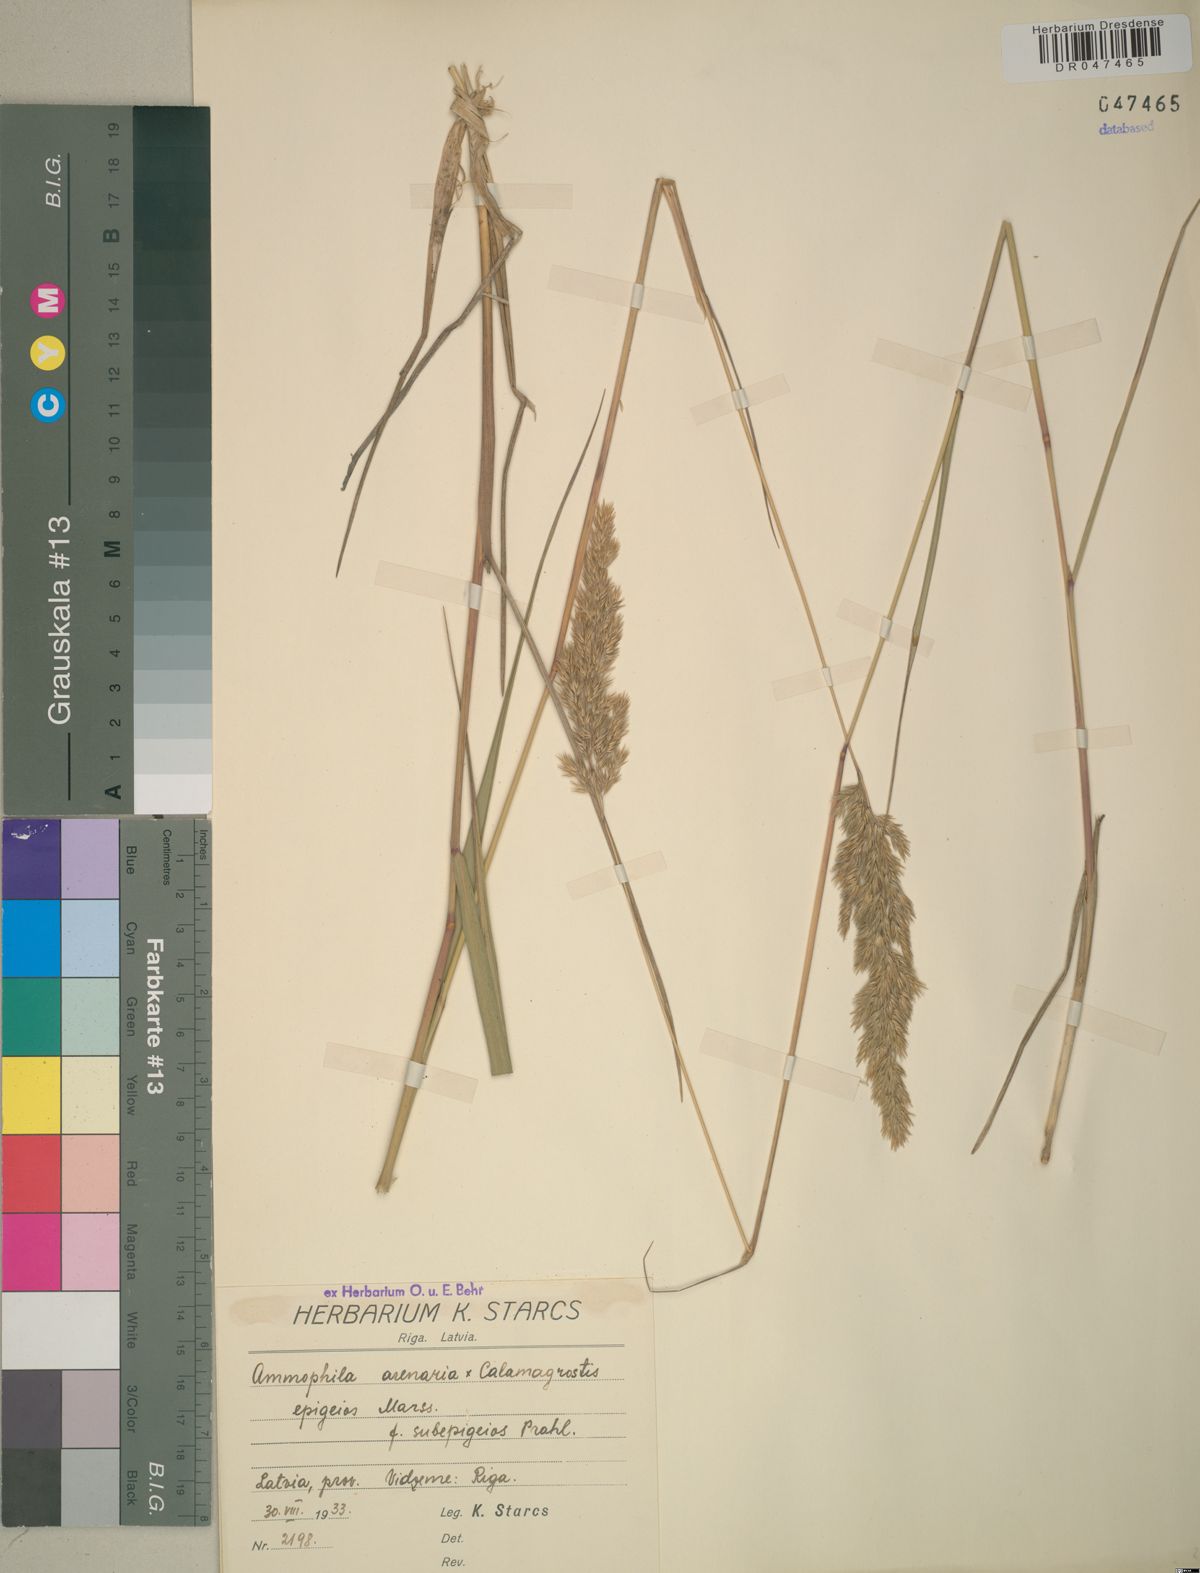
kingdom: Plantae
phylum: Tracheophyta
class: Liliopsida
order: Poales
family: Poaceae
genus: Calamagrostis
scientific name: Calamagrostis arenaria
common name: European beachgrass
